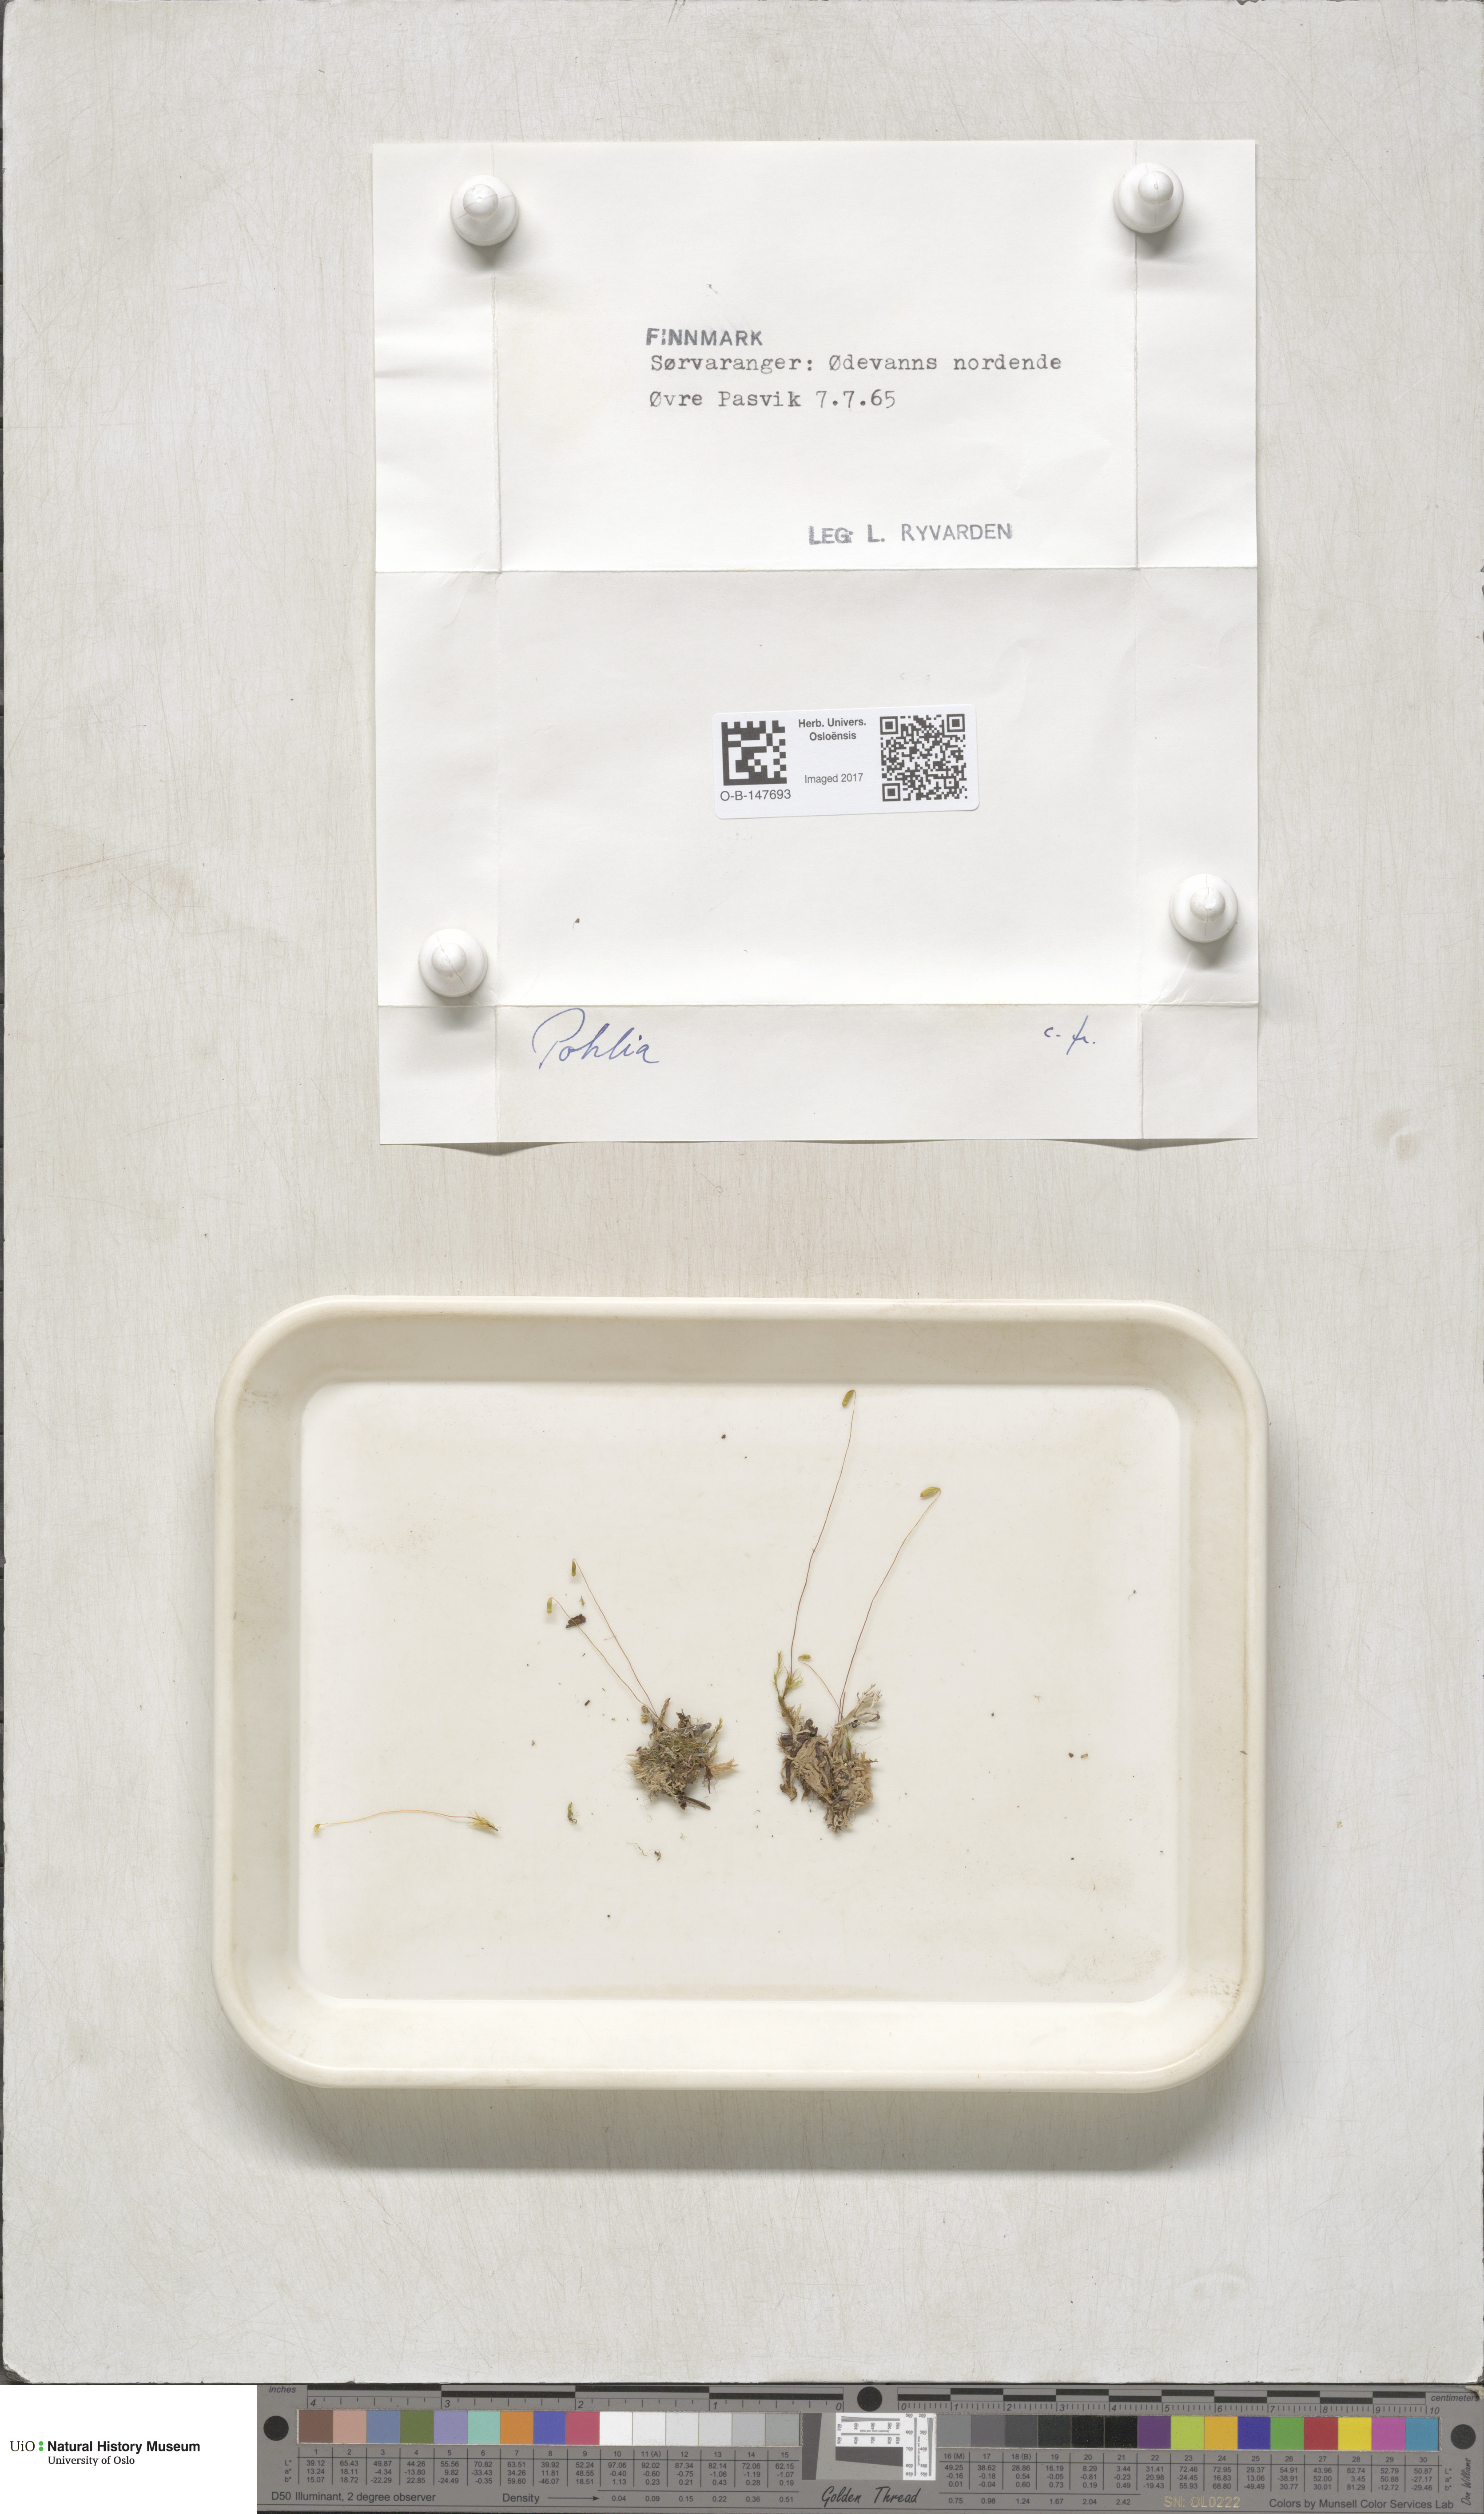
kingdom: Plantae
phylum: Bryophyta
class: Bryopsida
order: Bryales
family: Mniaceae
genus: Pohlia
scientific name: Pohlia
